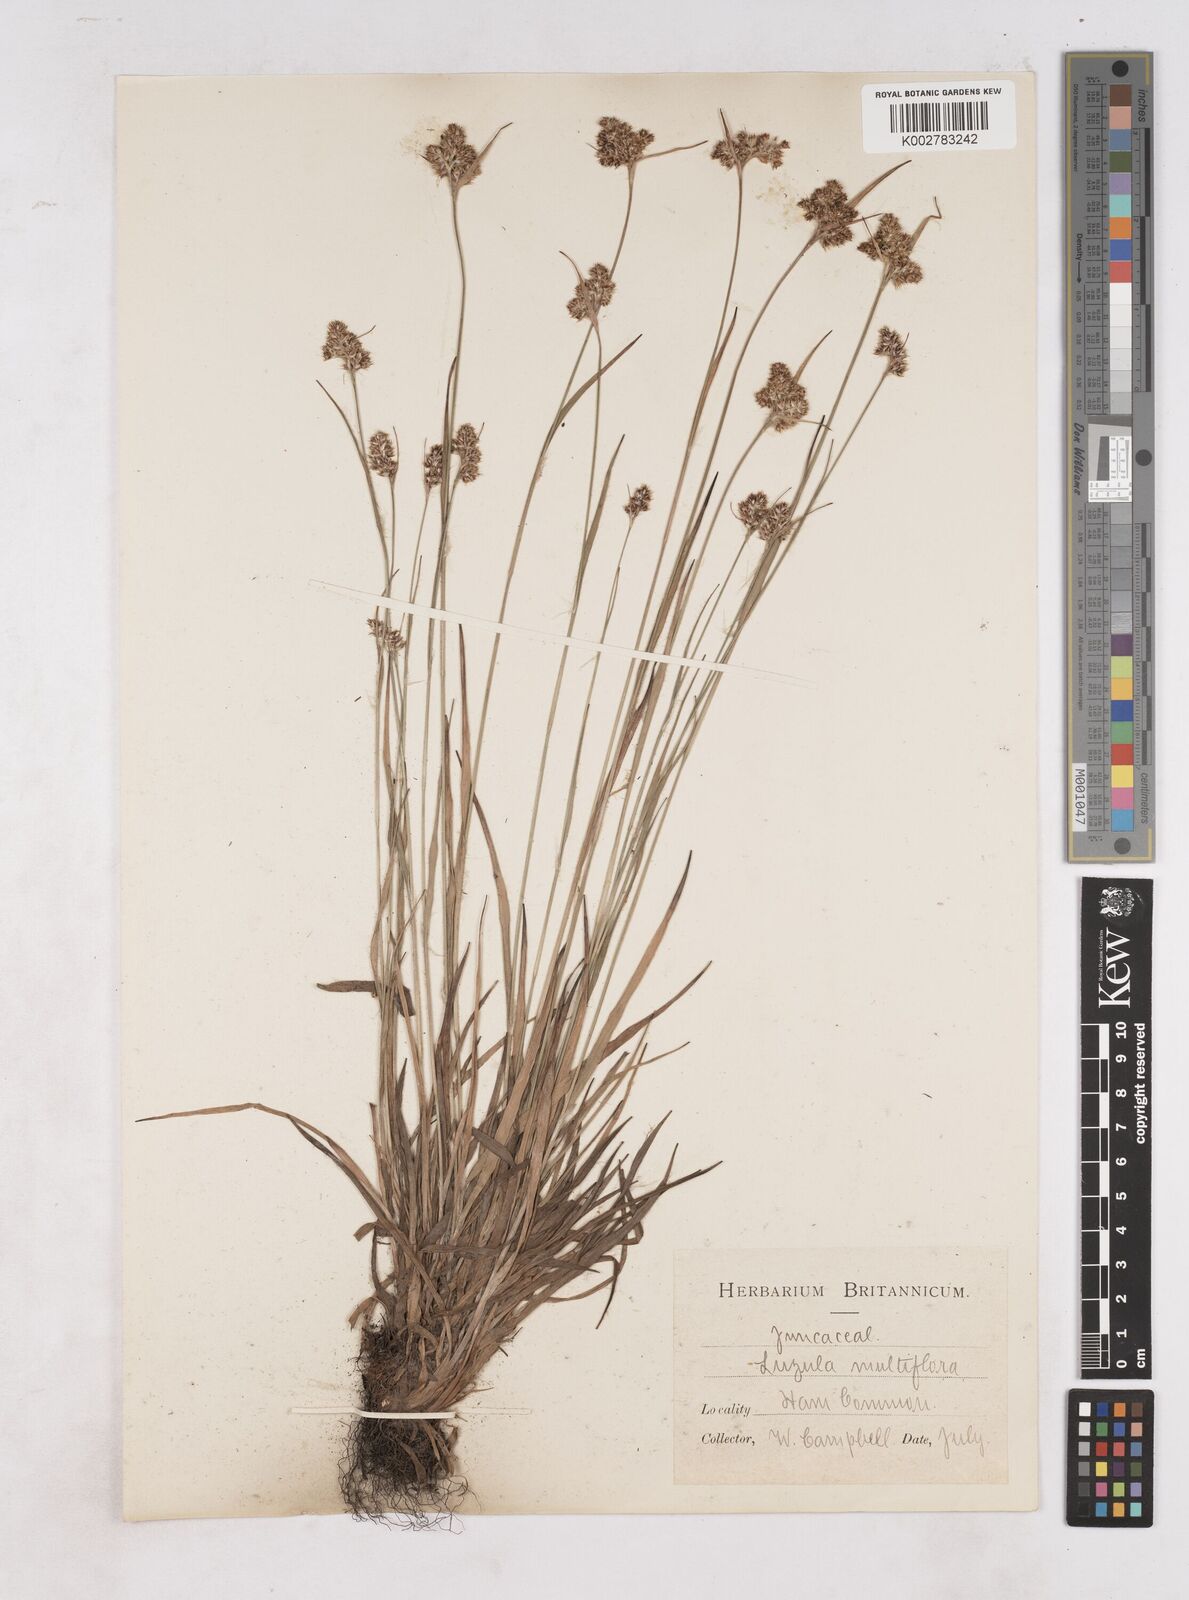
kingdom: Plantae
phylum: Tracheophyta
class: Liliopsida
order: Poales
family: Juncaceae
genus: Luzula
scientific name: Luzula multiflora
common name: Heath wood-rush
